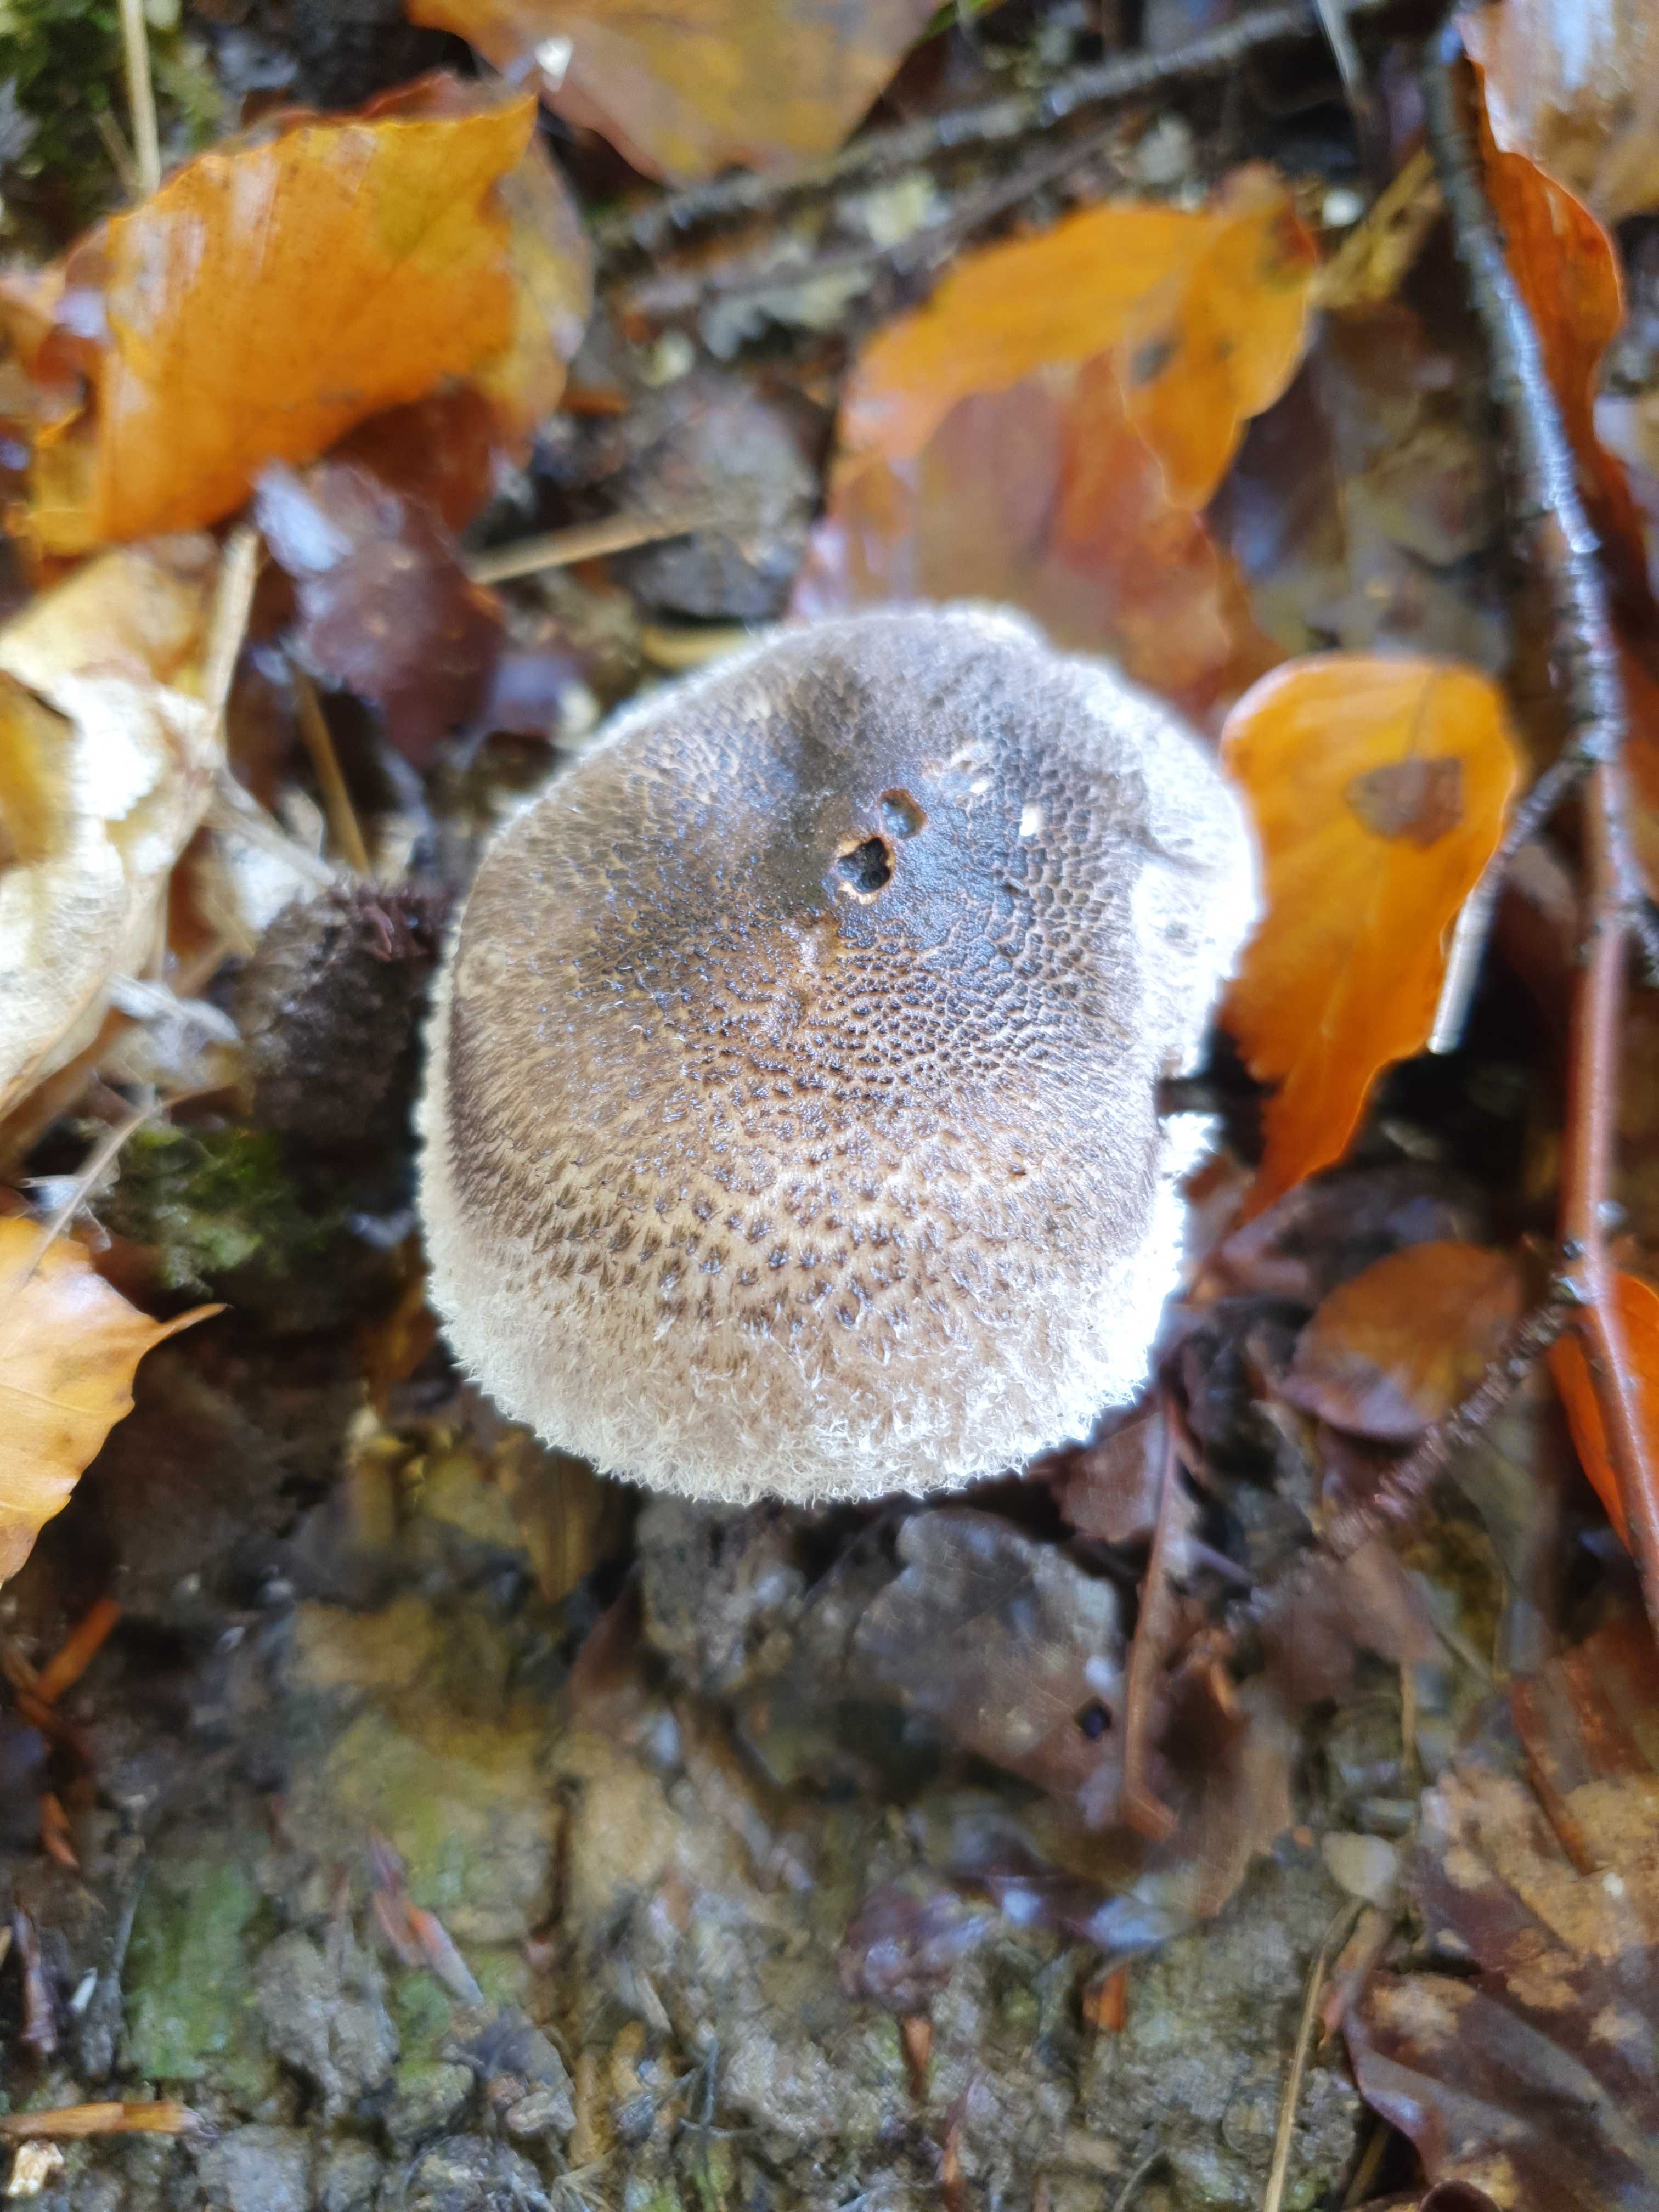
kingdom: Fungi
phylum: Basidiomycota
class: Agaricomycetes
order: Agaricales
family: Tricholomataceae
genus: Tricholoma
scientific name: Tricholoma atrosquamosum
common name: sortskællet ridderhat
